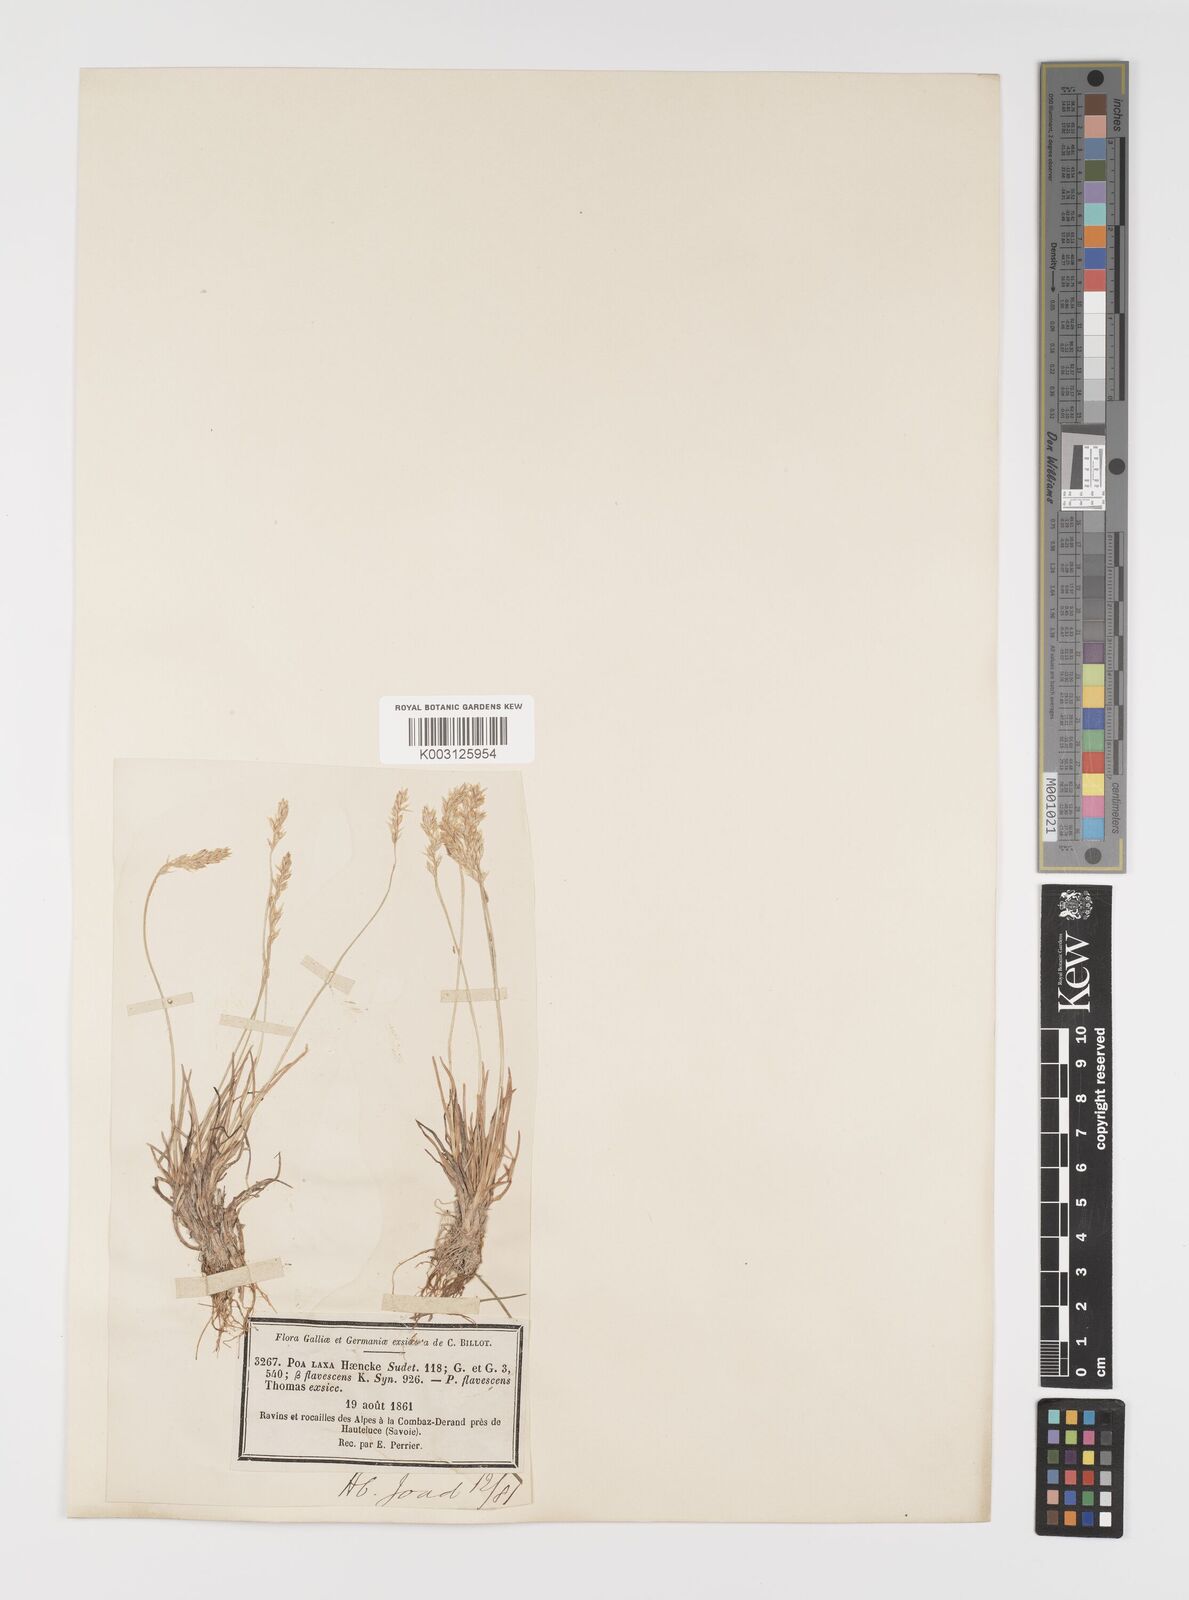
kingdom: Plantae
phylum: Tracheophyta
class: Liliopsida
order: Poales
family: Poaceae
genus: Poa
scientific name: Poa laxa
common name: Lax bluegrass
